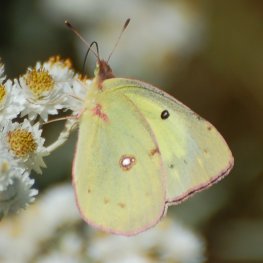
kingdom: Animalia
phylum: Arthropoda
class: Insecta
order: Lepidoptera
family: Pieridae
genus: Colias
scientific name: Colias philodice
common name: Clouded Sulphur
